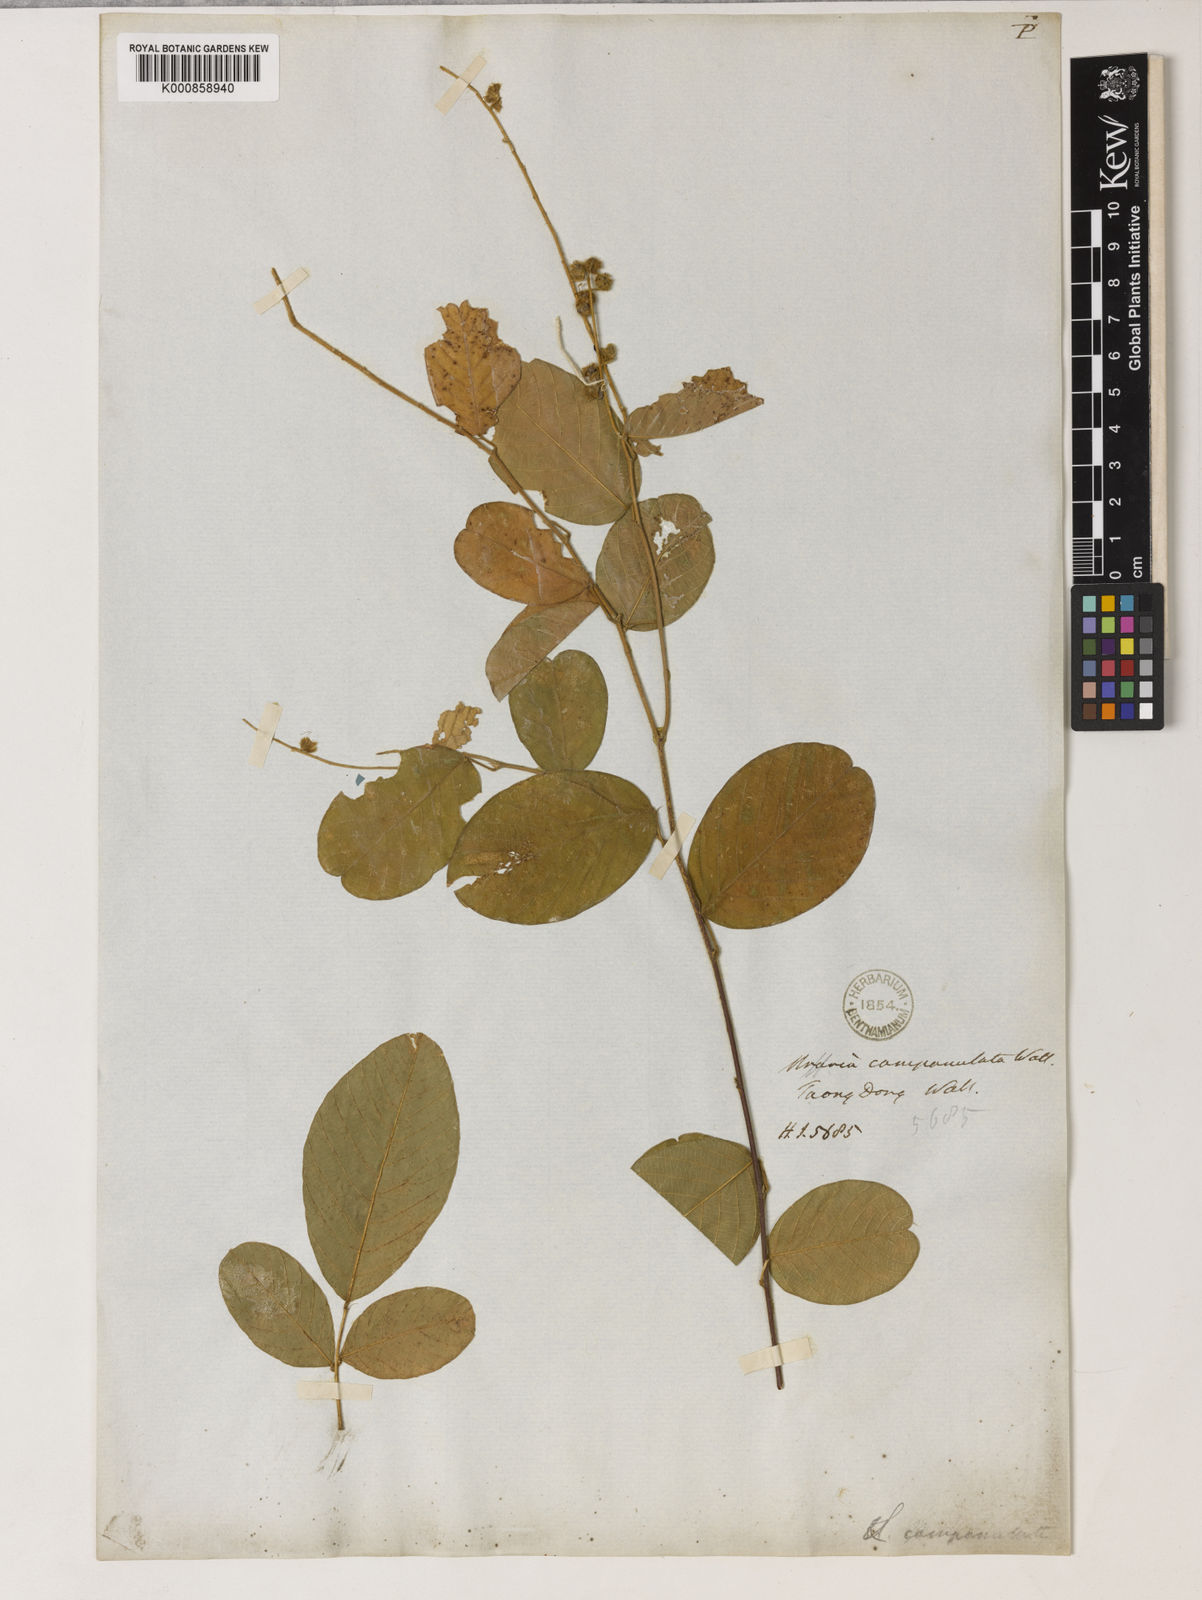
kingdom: Plantae
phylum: Tracheophyta
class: Magnoliopsida
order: Fabales
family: Fabaceae
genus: Uraria
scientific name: Uraria campanulata
